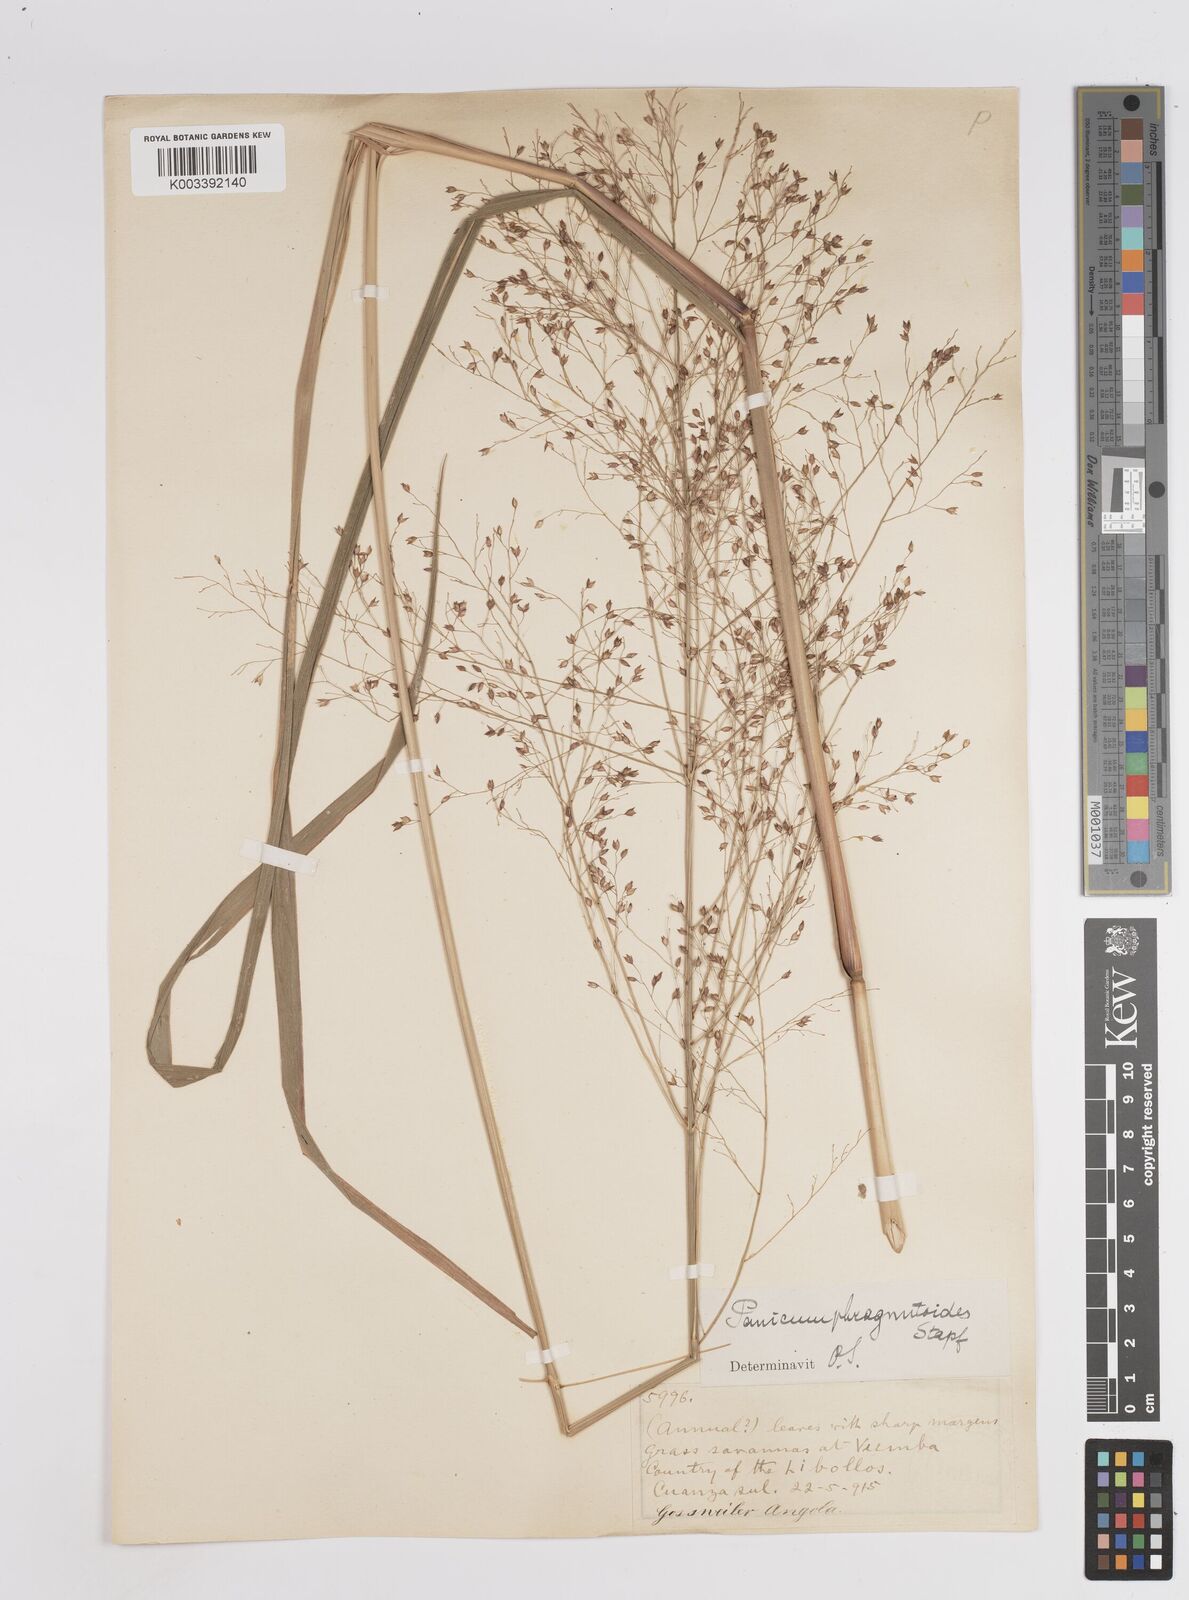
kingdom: Plantae
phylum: Tracheophyta
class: Liliopsida
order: Poales
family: Poaceae
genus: Panicum
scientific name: Panicum phragmitoides
